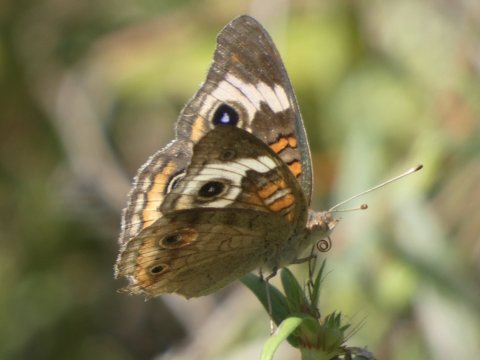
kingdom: Animalia
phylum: Arthropoda
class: Insecta
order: Lepidoptera
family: Nymphalidae
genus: Junonia
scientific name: Junonia coenia
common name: Common Buckeye
